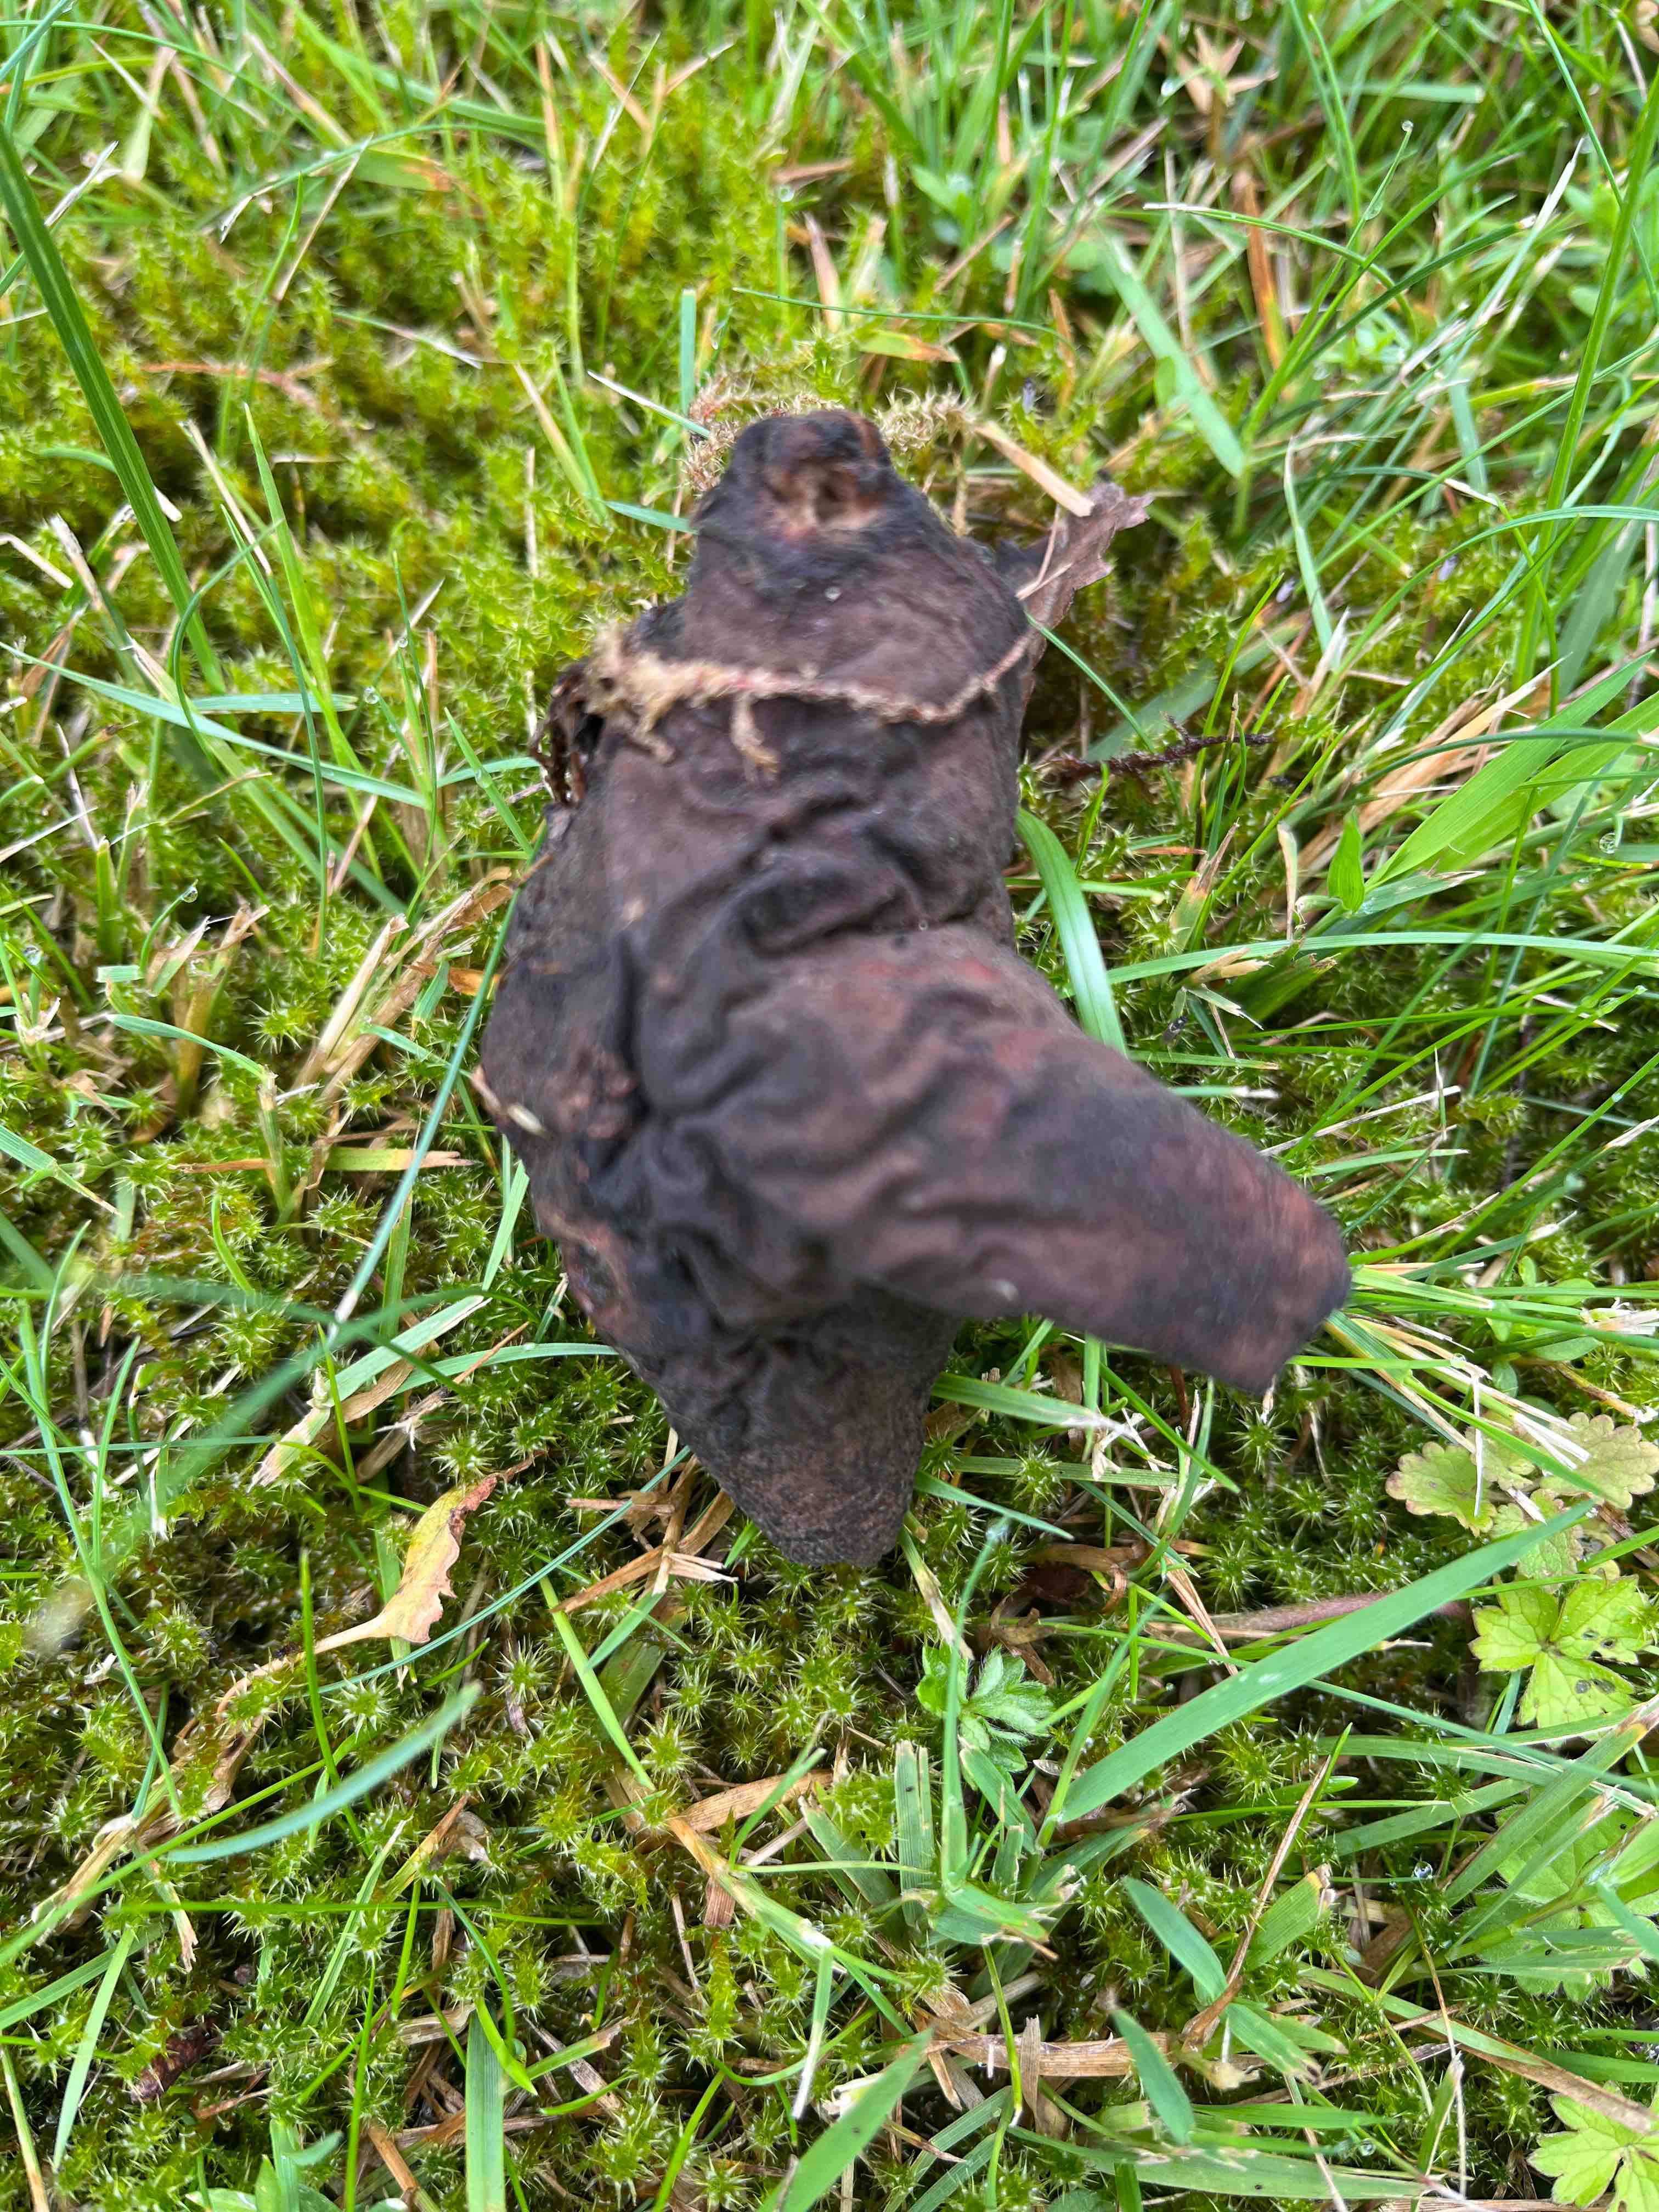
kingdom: Fungi
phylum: Ascomycota
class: Pezizomycetes
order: Pezizales
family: Helvellaceae
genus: Helvella
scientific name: Helvella lacunosa
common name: grubet foldhat
